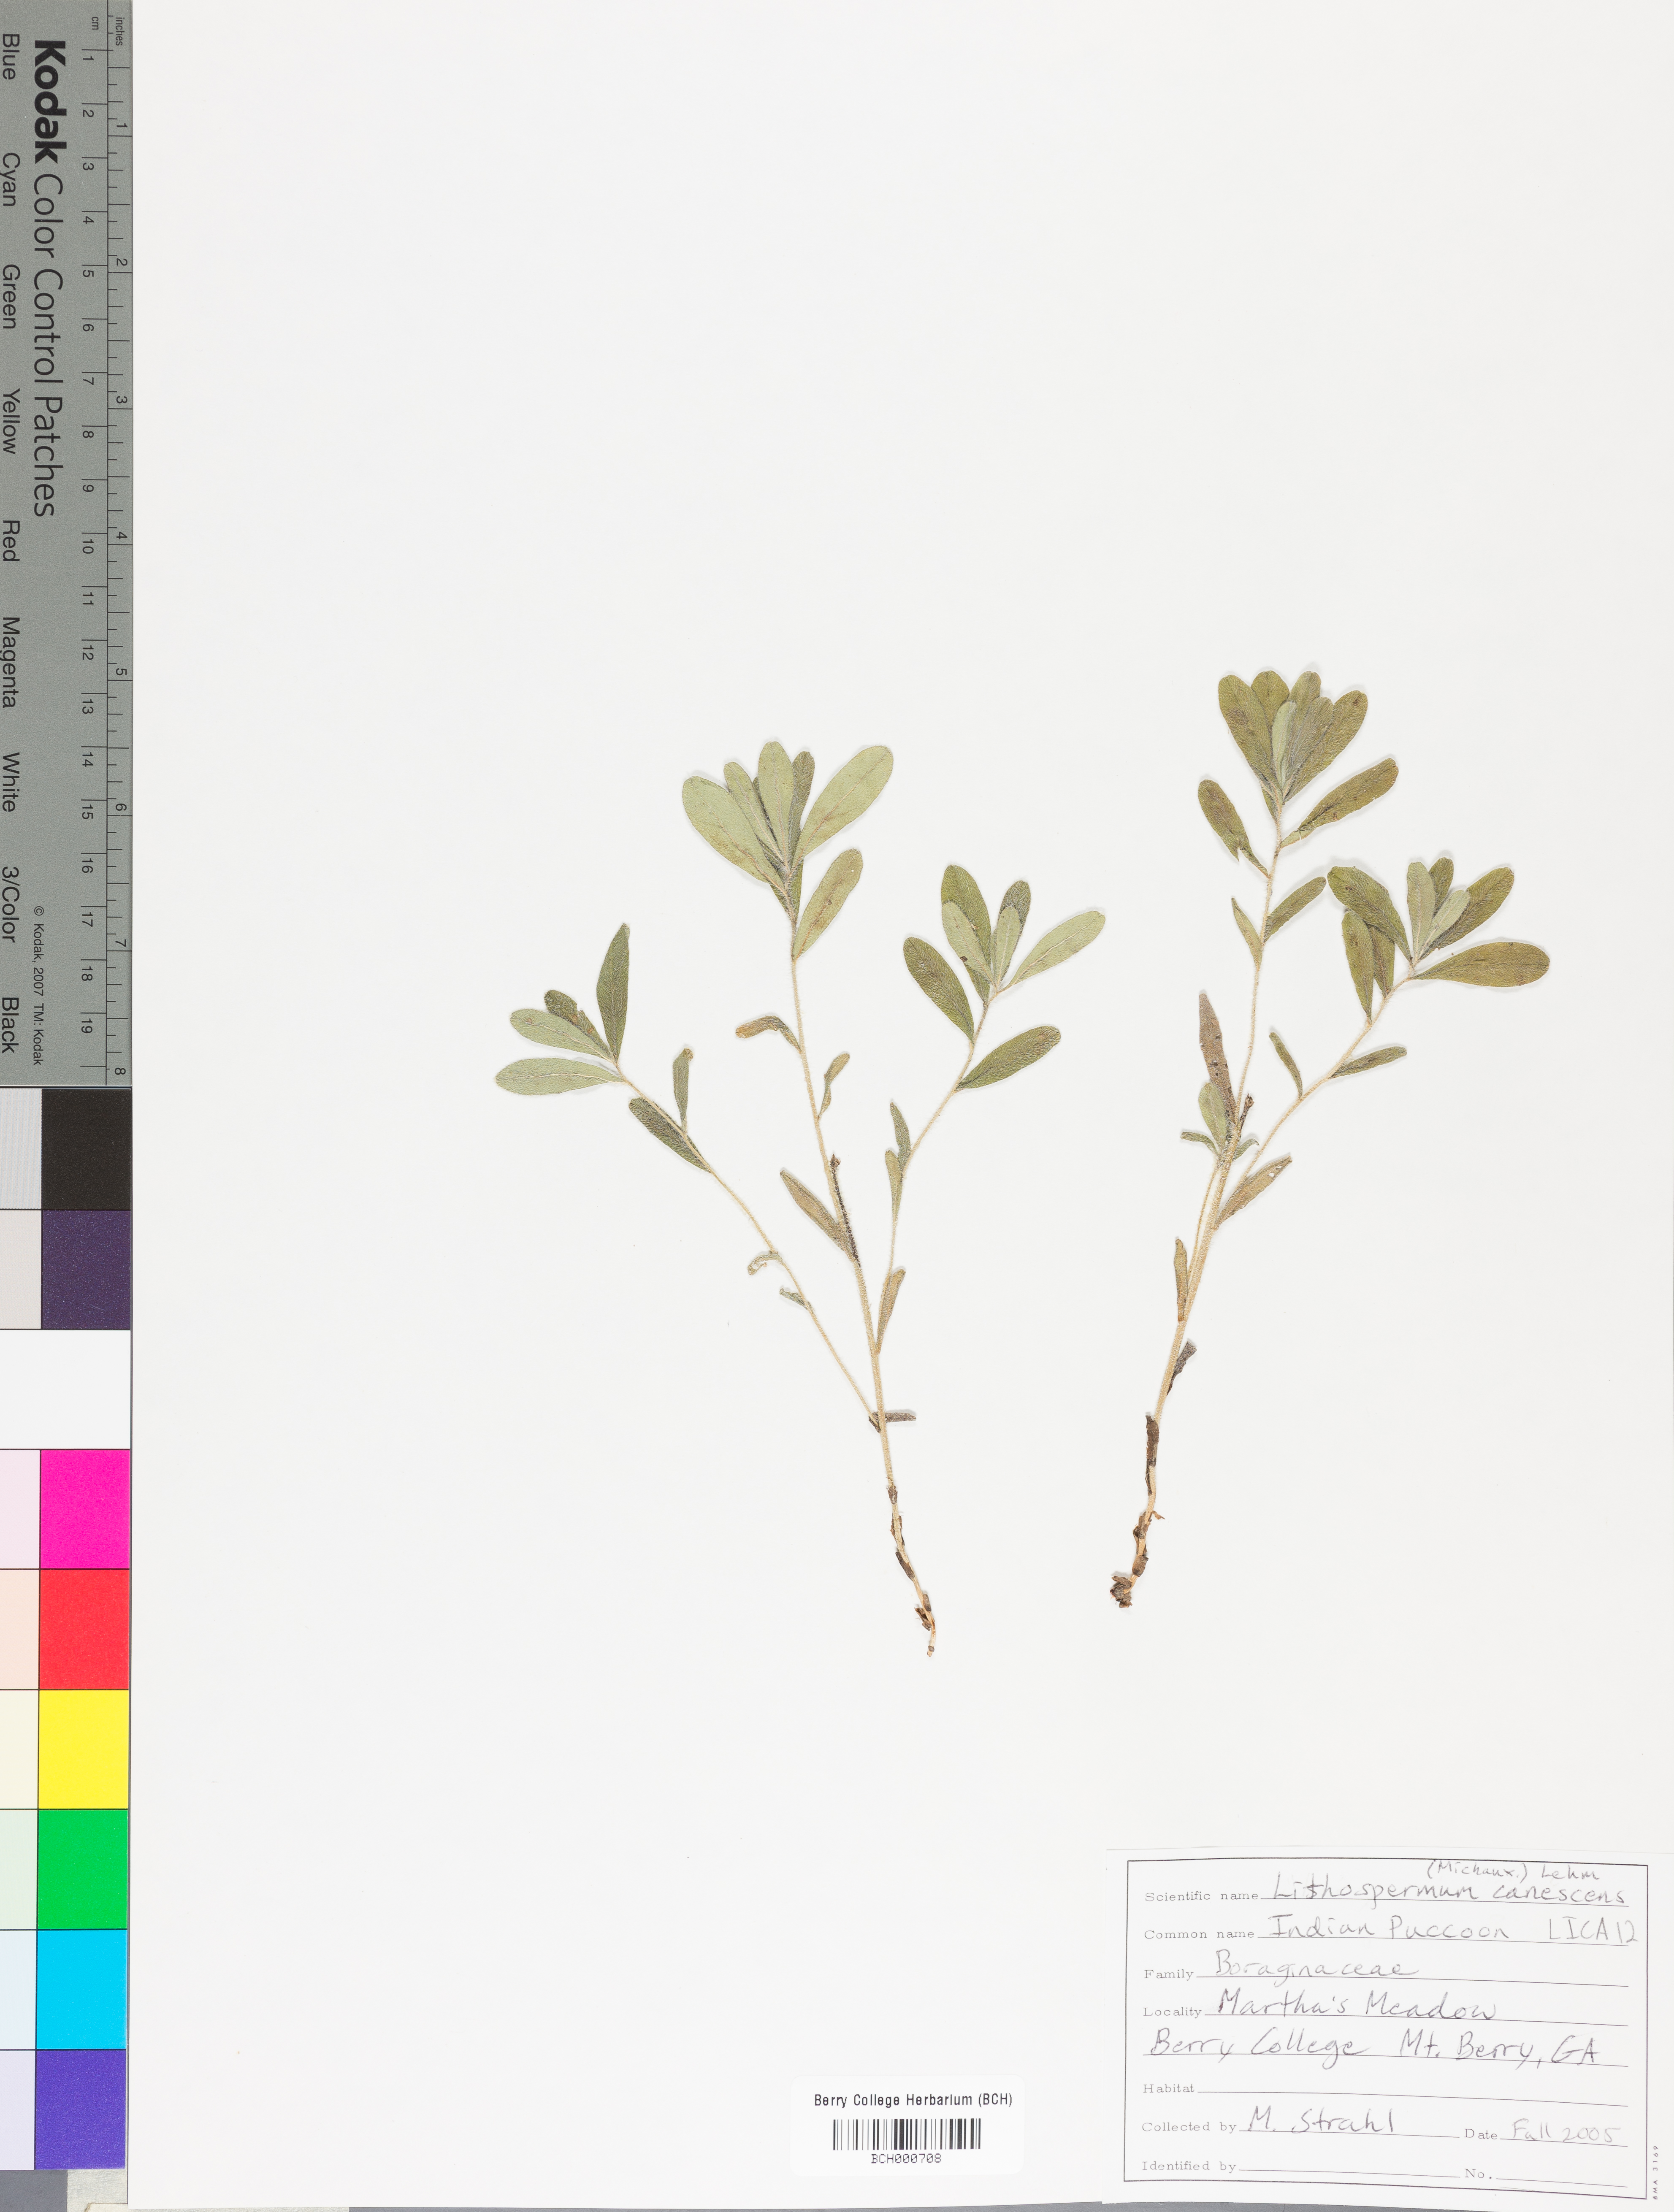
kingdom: Plantae
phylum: Tracheophyta
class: Magnoliopsida
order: Boraginales
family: Boraginaceae
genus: Lithospermum
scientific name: Lithospermum canescens
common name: Hoary puccoon
